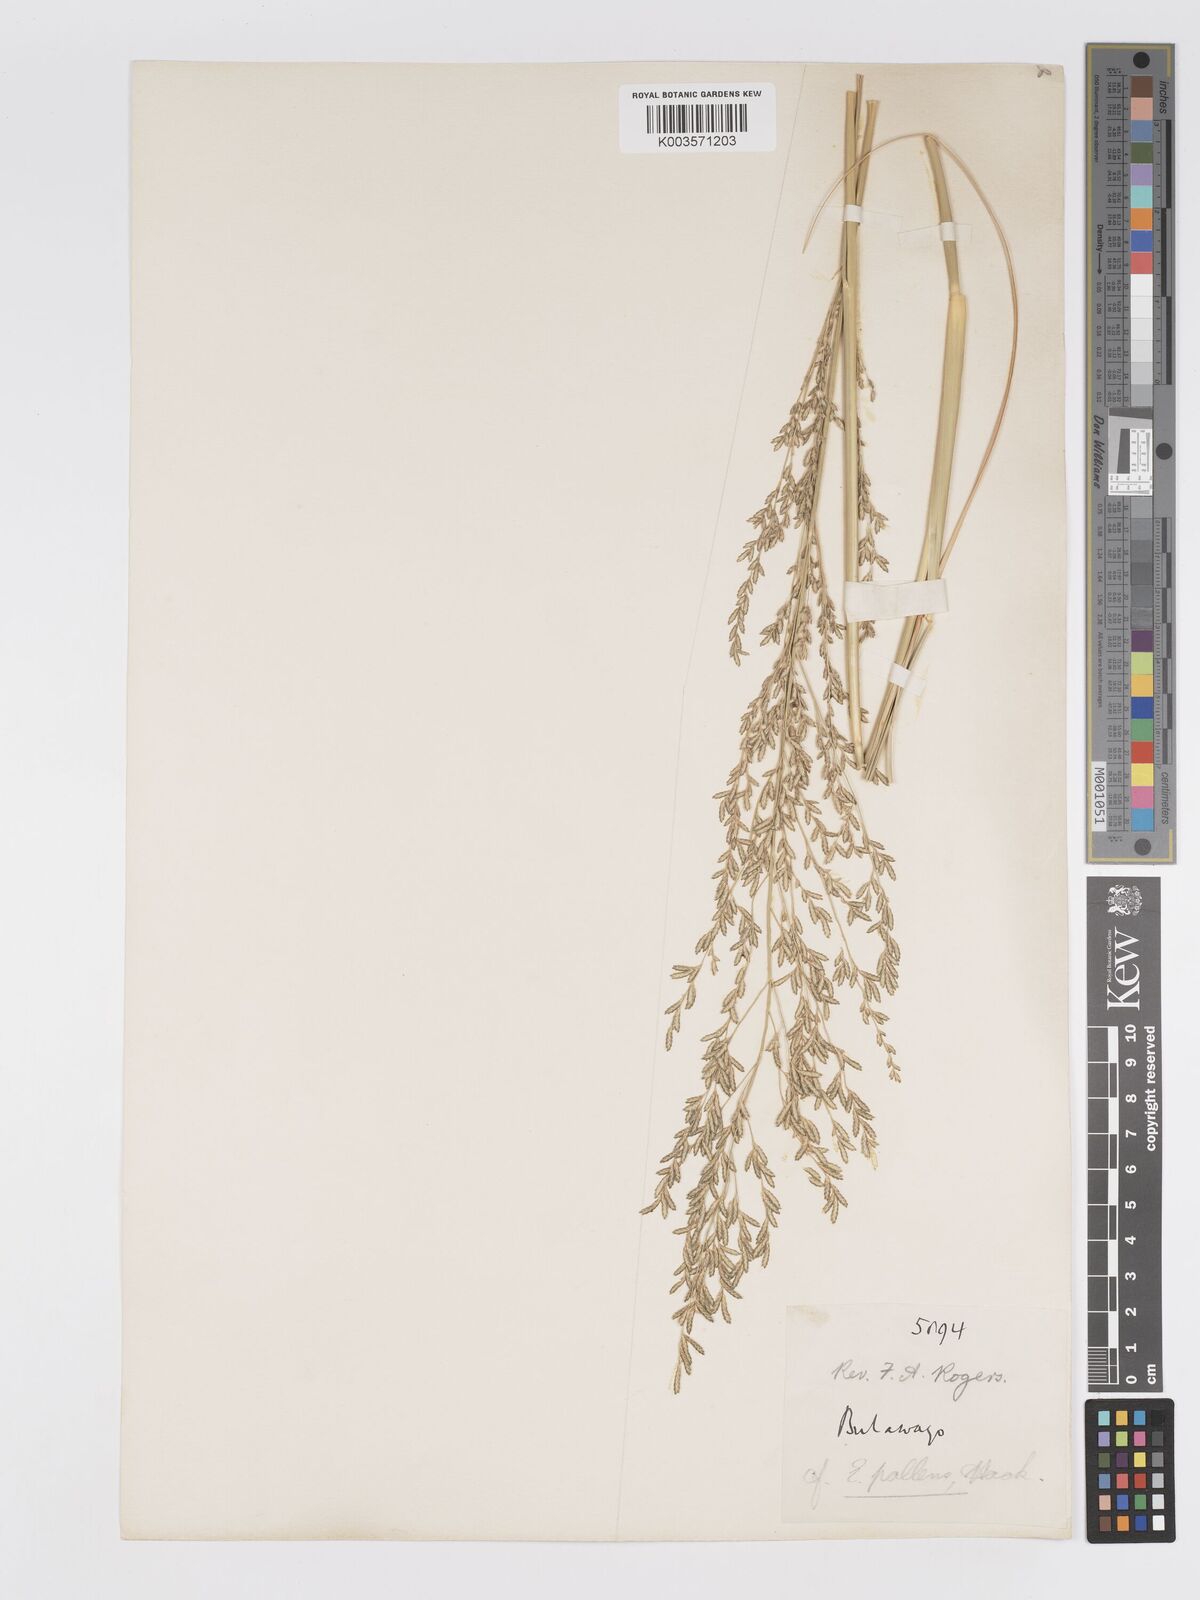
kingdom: Plantae
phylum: Tracheophyta
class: Liliopsida
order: Poales
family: Poaceae
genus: Eragrostis
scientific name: Eragrostis pallens
